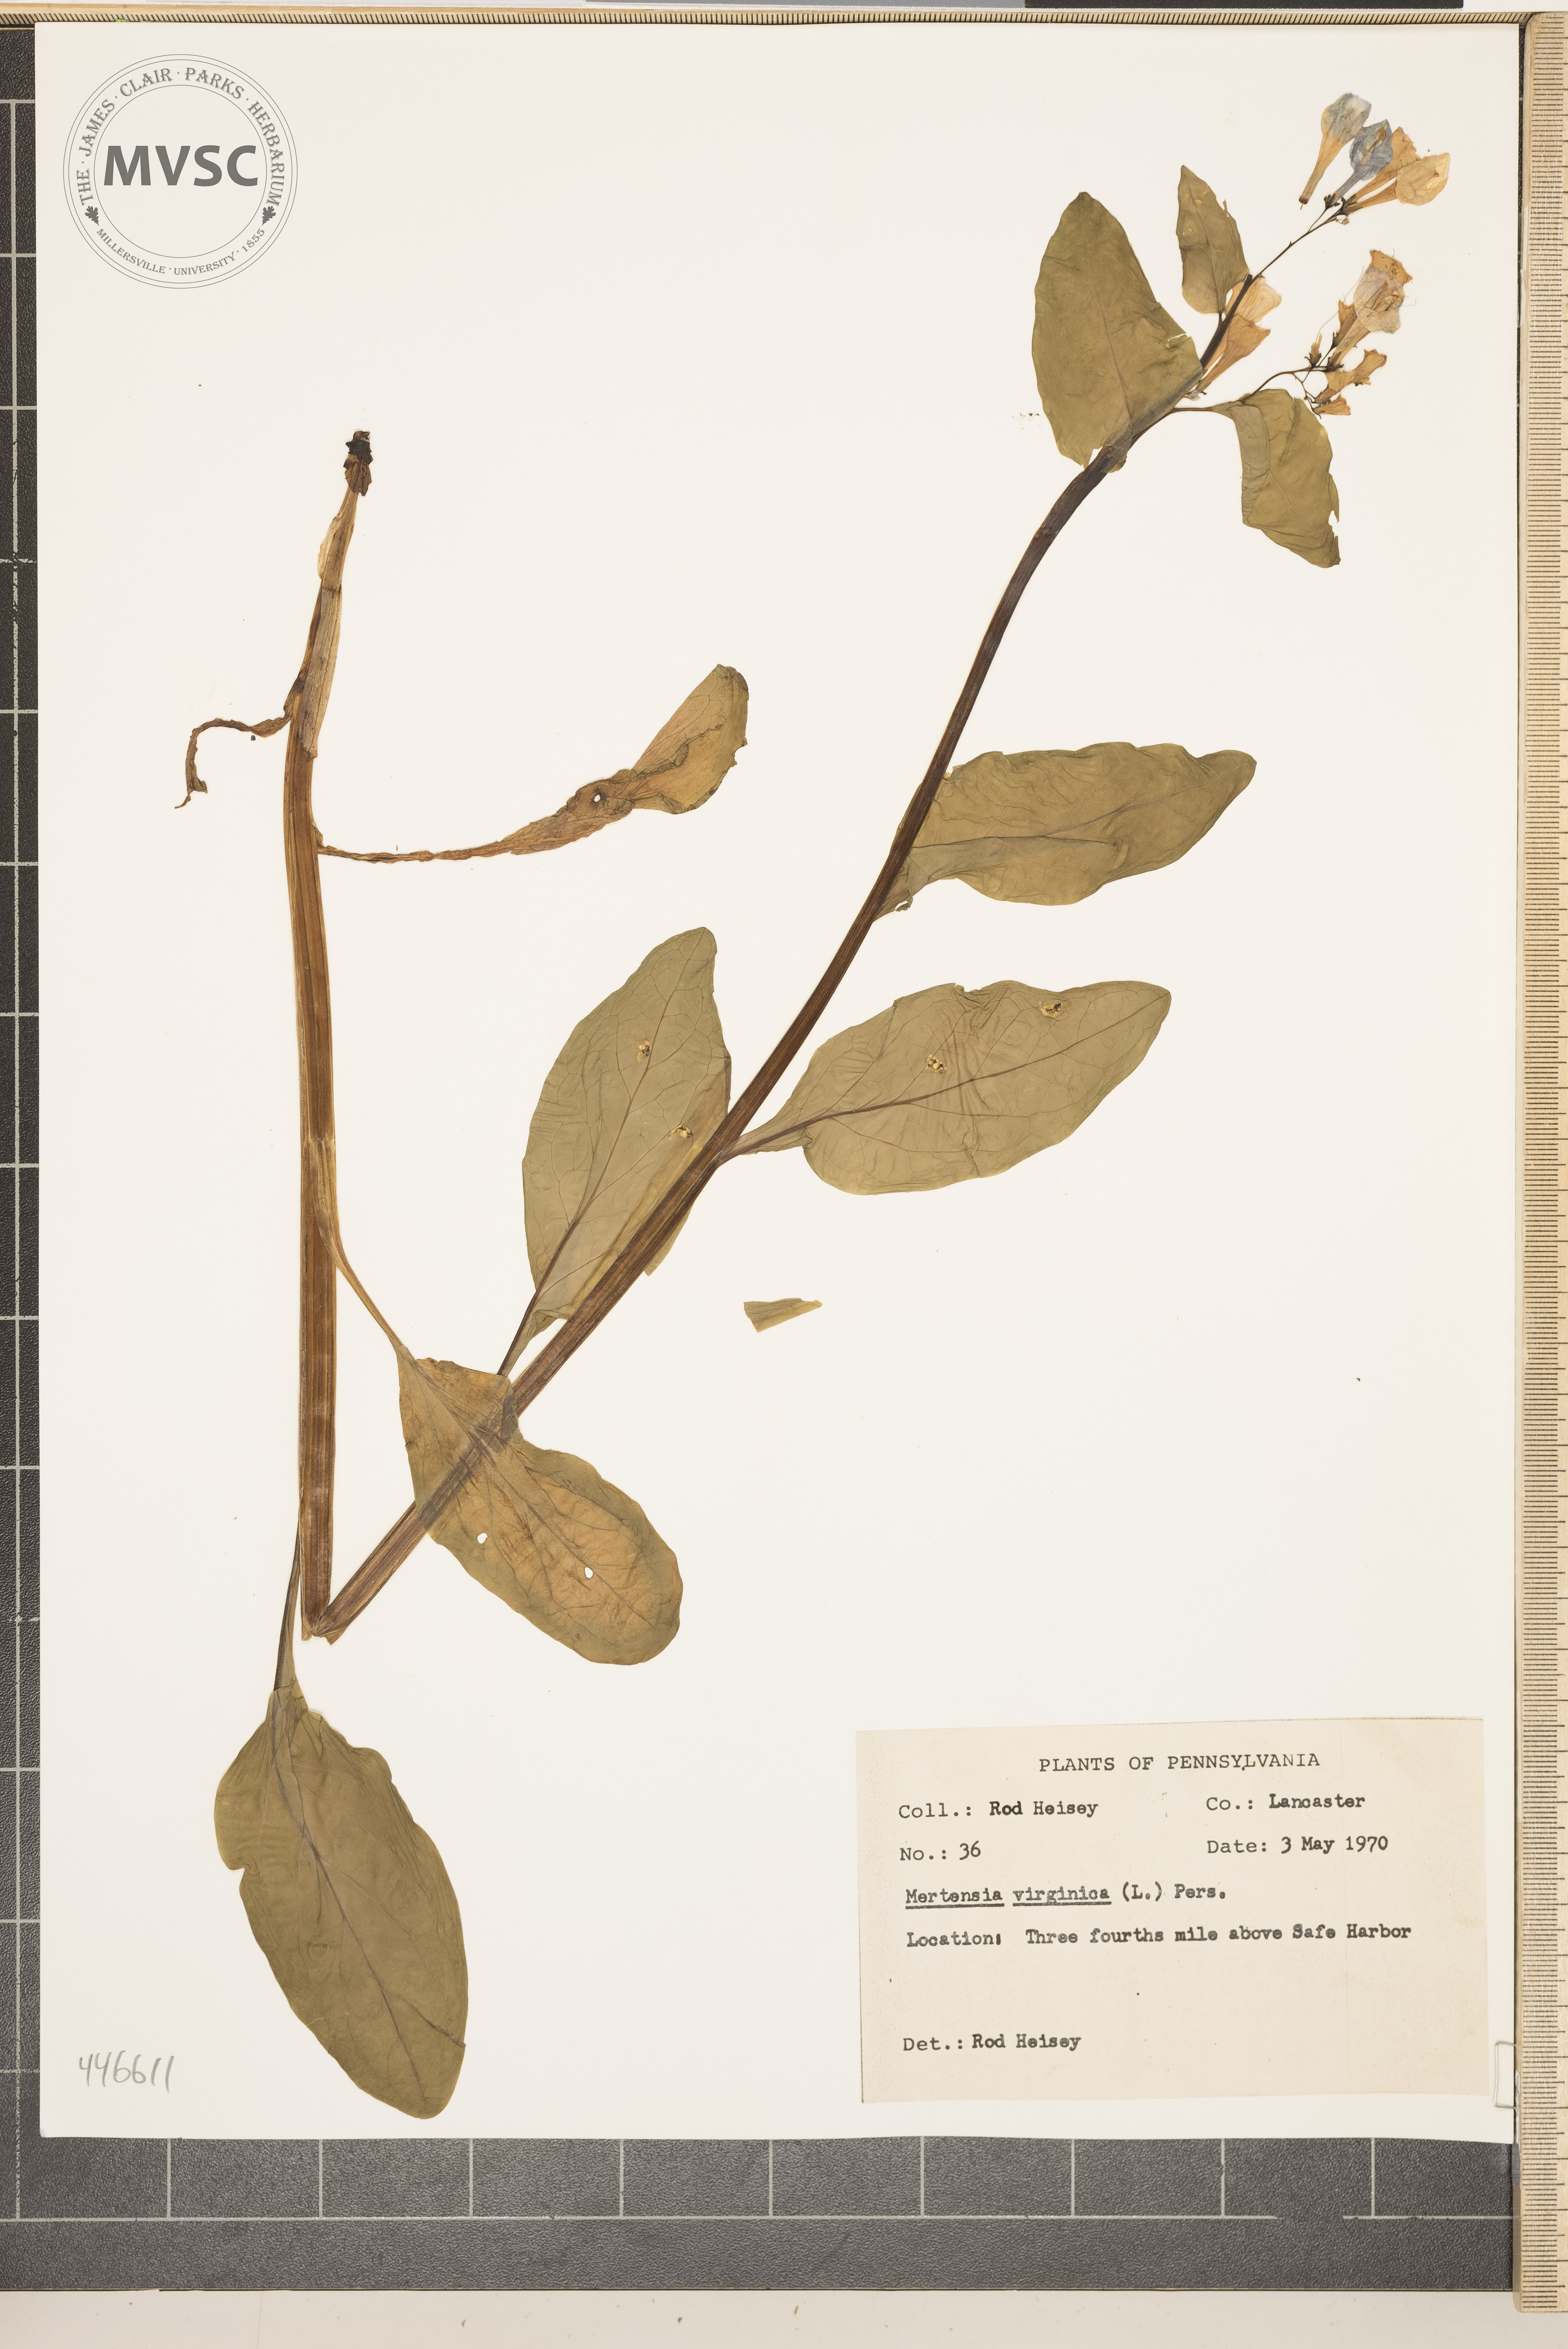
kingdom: Plantae
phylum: Tracheophyta
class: Magnoliopsida
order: Boraginales
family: Boraginaceae
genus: Mertensia
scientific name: Mertensia virginica
